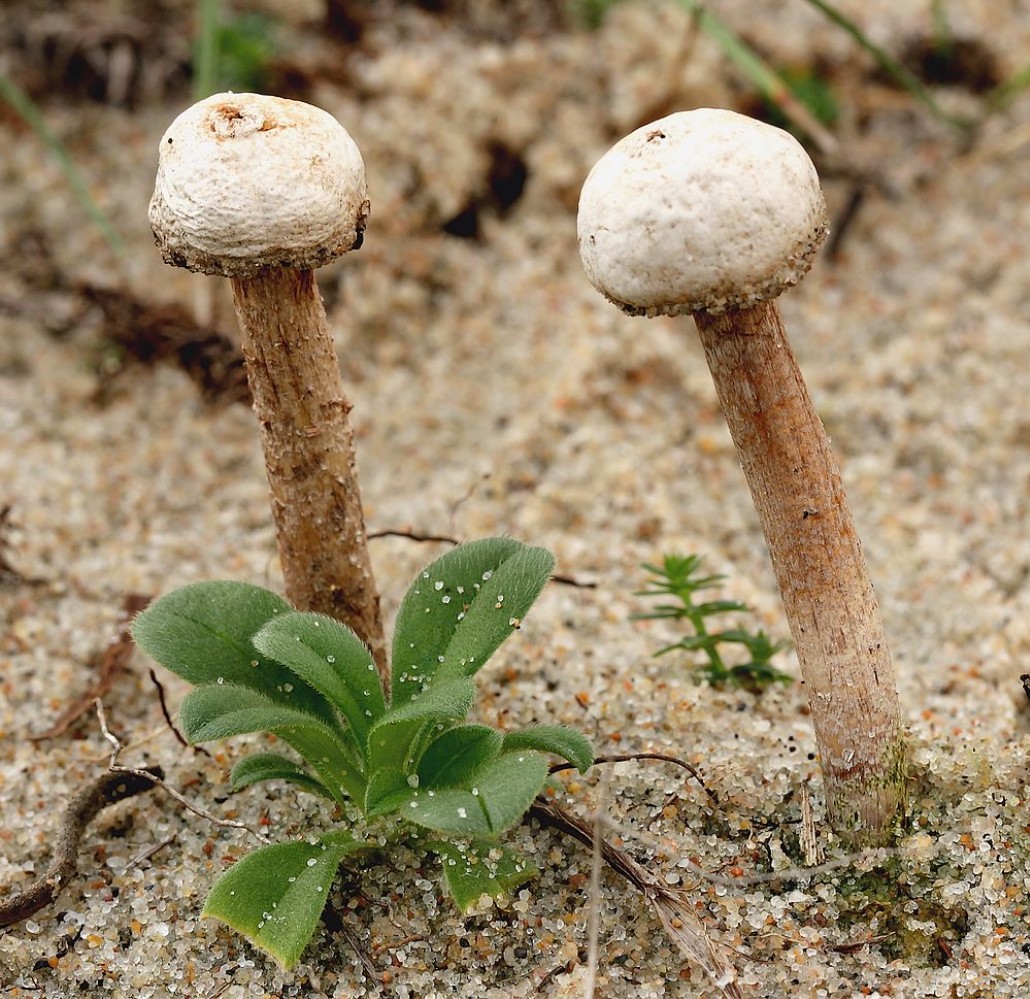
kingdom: Fungi
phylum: Basidiomycota
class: Agaricomycetes
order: Agaricales
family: Agaricaceae
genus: Tulostoma
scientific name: Tulostoma fimbriatum
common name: frynset stilkbovist
